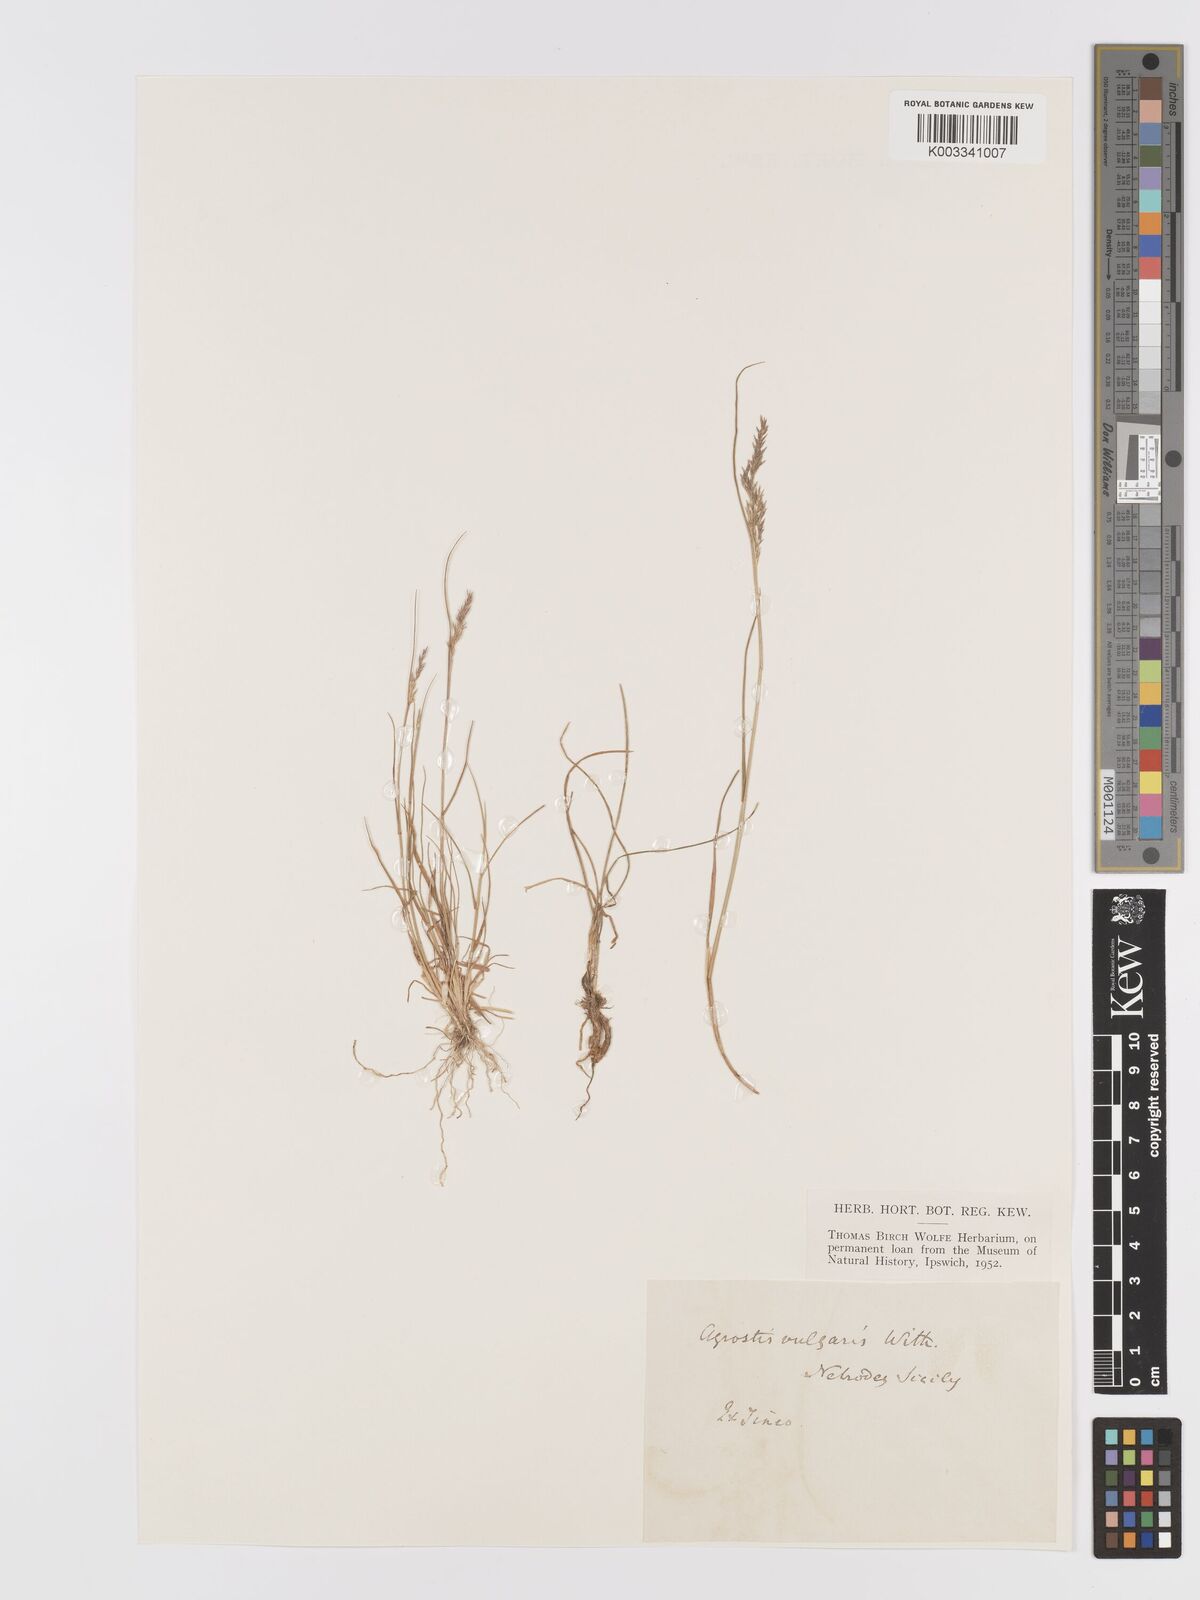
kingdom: Plantae
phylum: Tracheophyta
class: Liliopsida
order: Poales
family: Poaceae
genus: Agrostis
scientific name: Agrostis capillaris
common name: Colonial bentgrass
